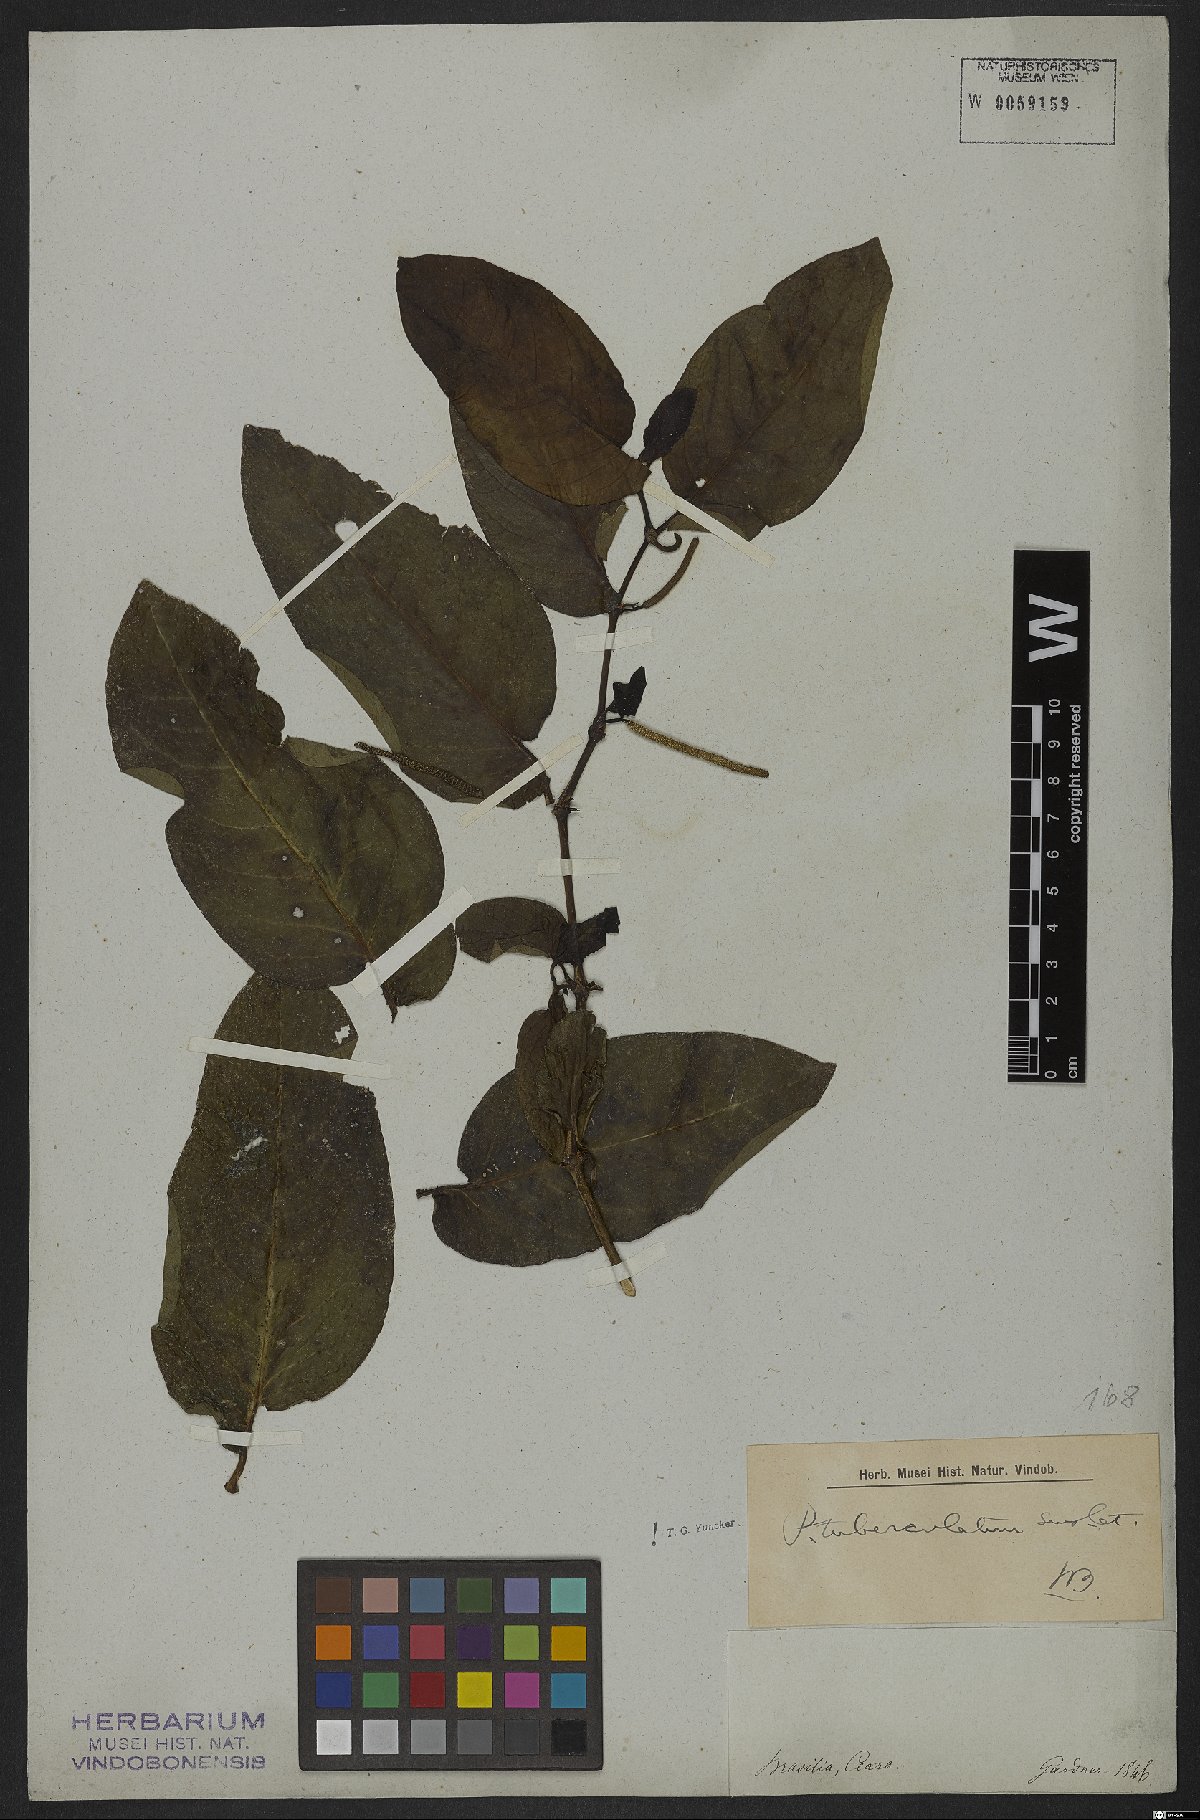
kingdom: Plantae
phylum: Tracheophyta
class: Magnoliopsida
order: Piperales
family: Piperaceae
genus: Piper
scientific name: Piper tuberculatum
